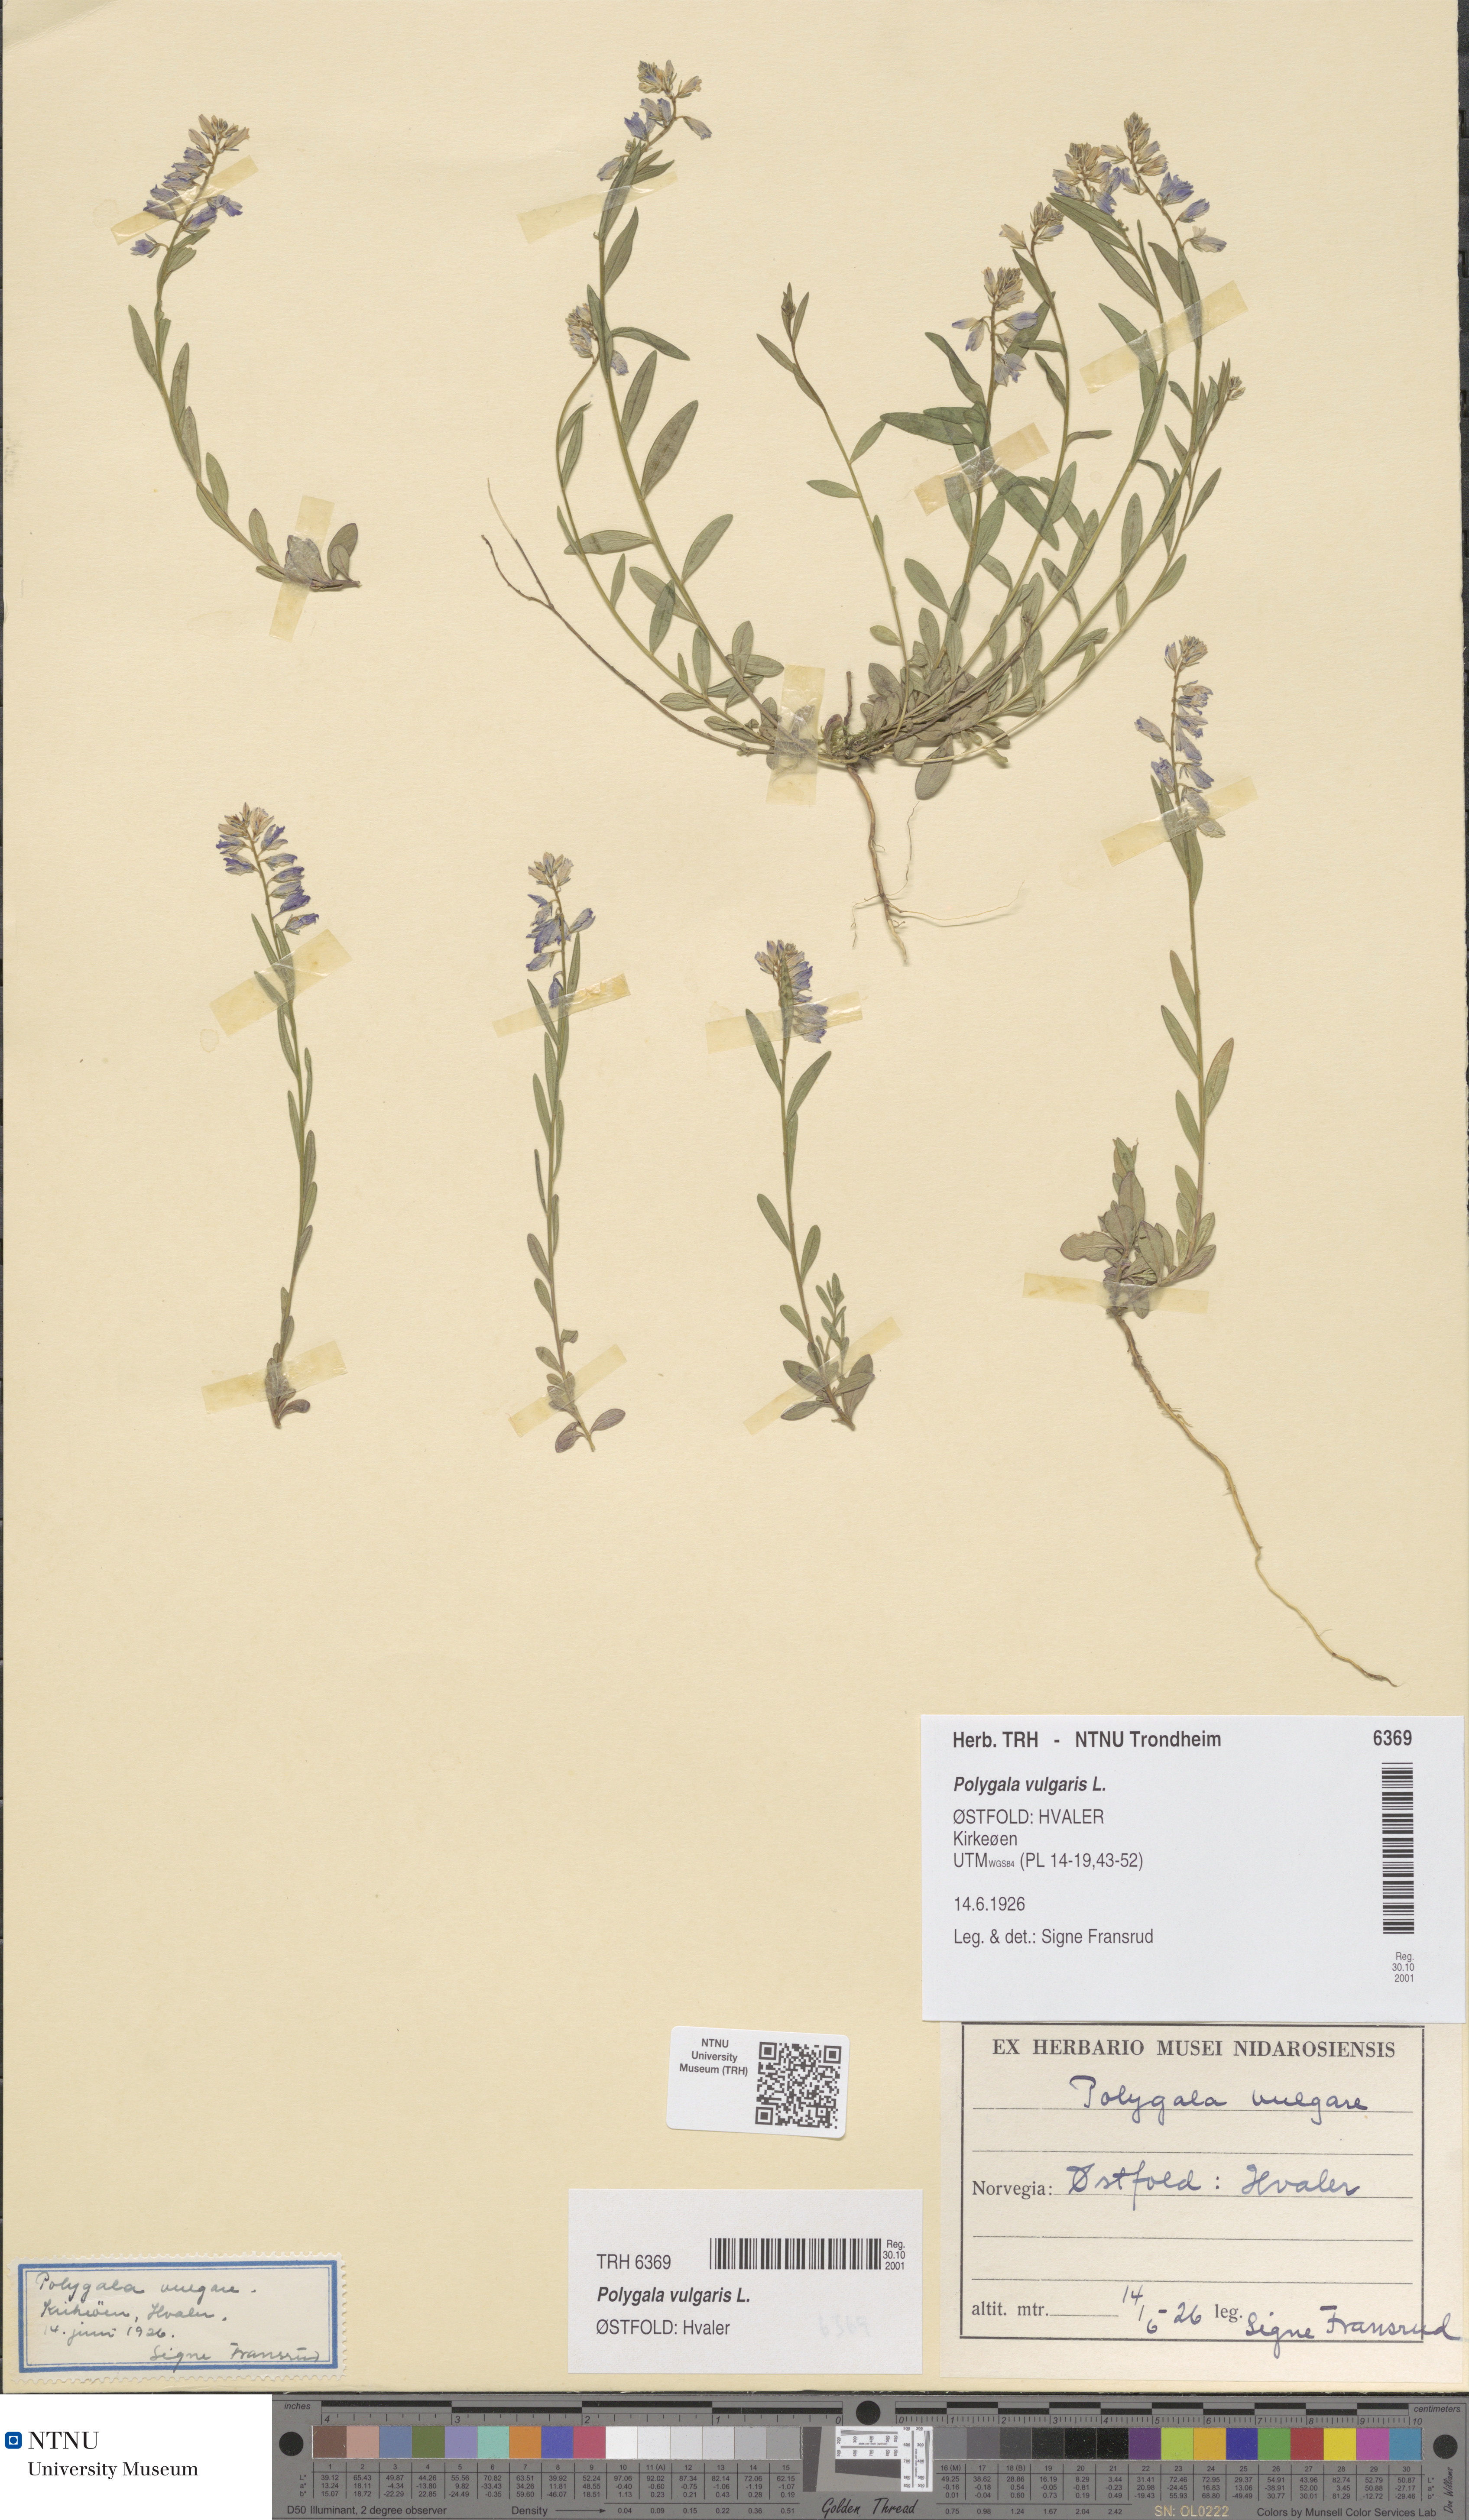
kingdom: Plantae
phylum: Tracheophyta
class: Magnoliopsida
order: Fabales
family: Polygalaceae
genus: Polygala
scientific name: Polygala vulgaris
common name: Common milkwort
